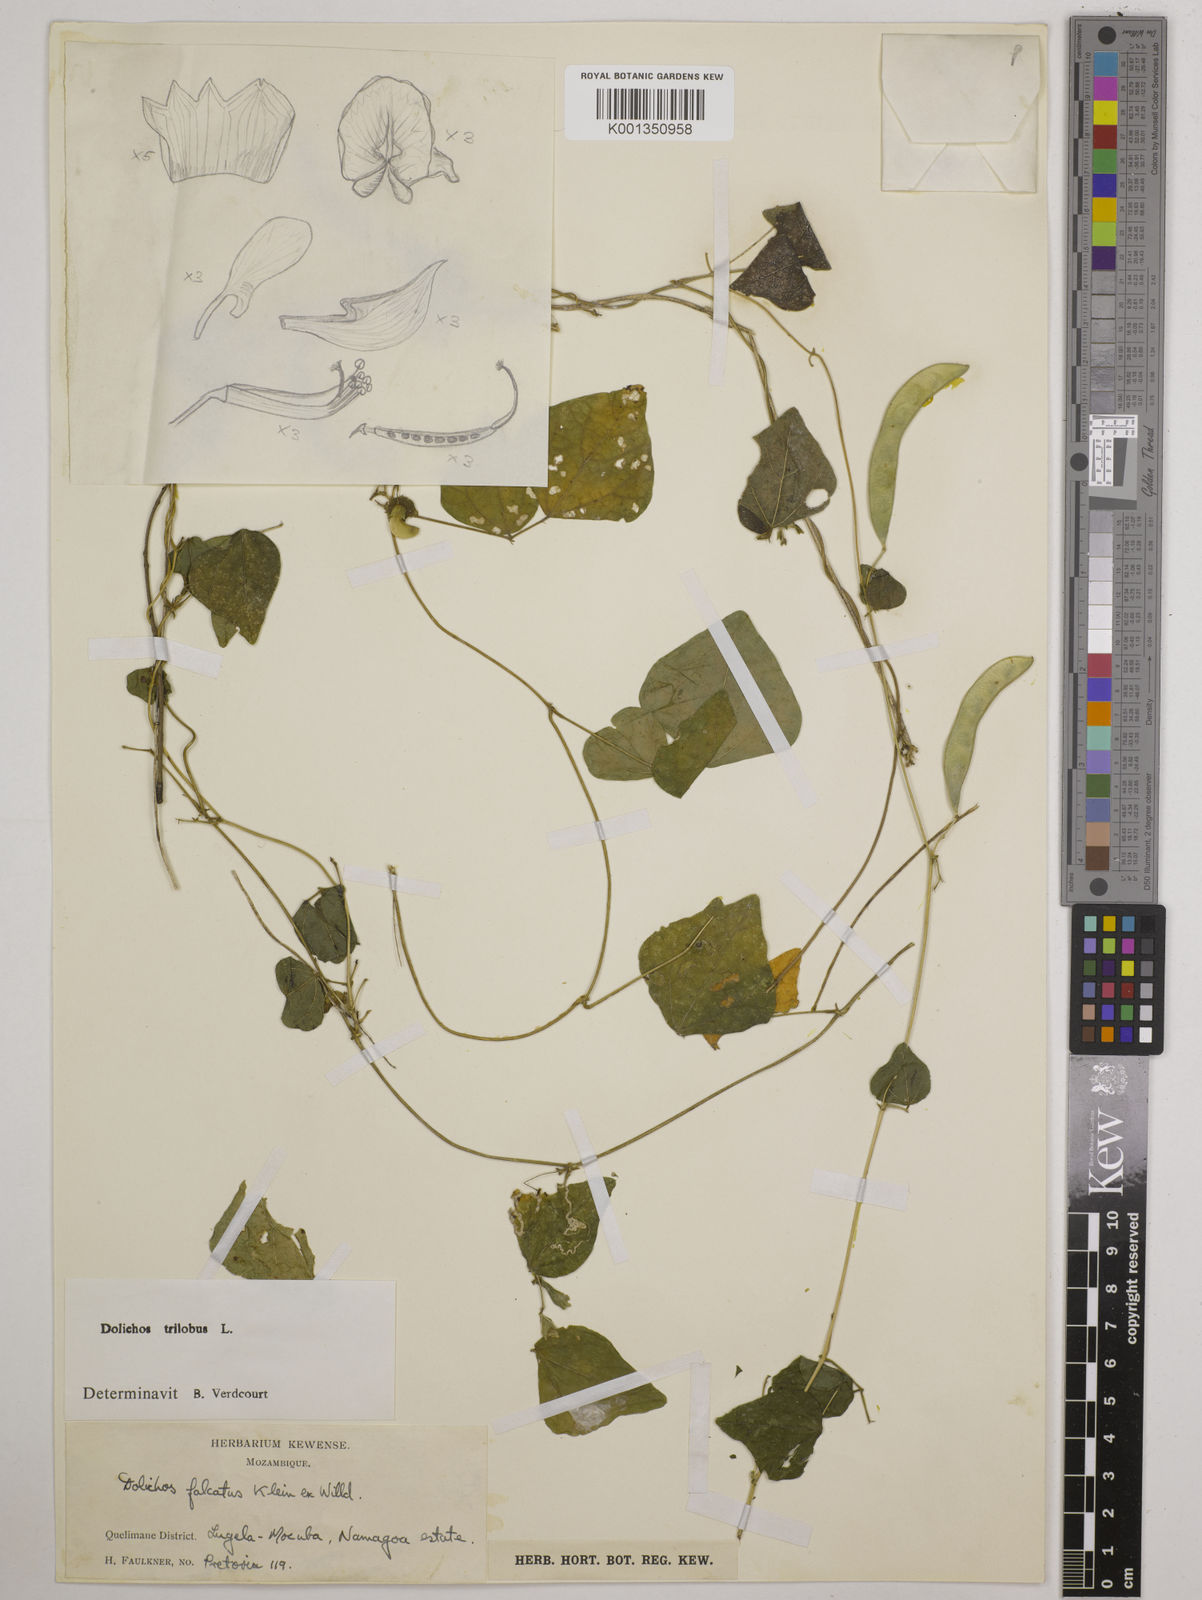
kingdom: Plantae
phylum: Tracheophyta
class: Magnoliopsida
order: Fabales
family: Fabaceae
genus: Dolichos
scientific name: Dolichos
